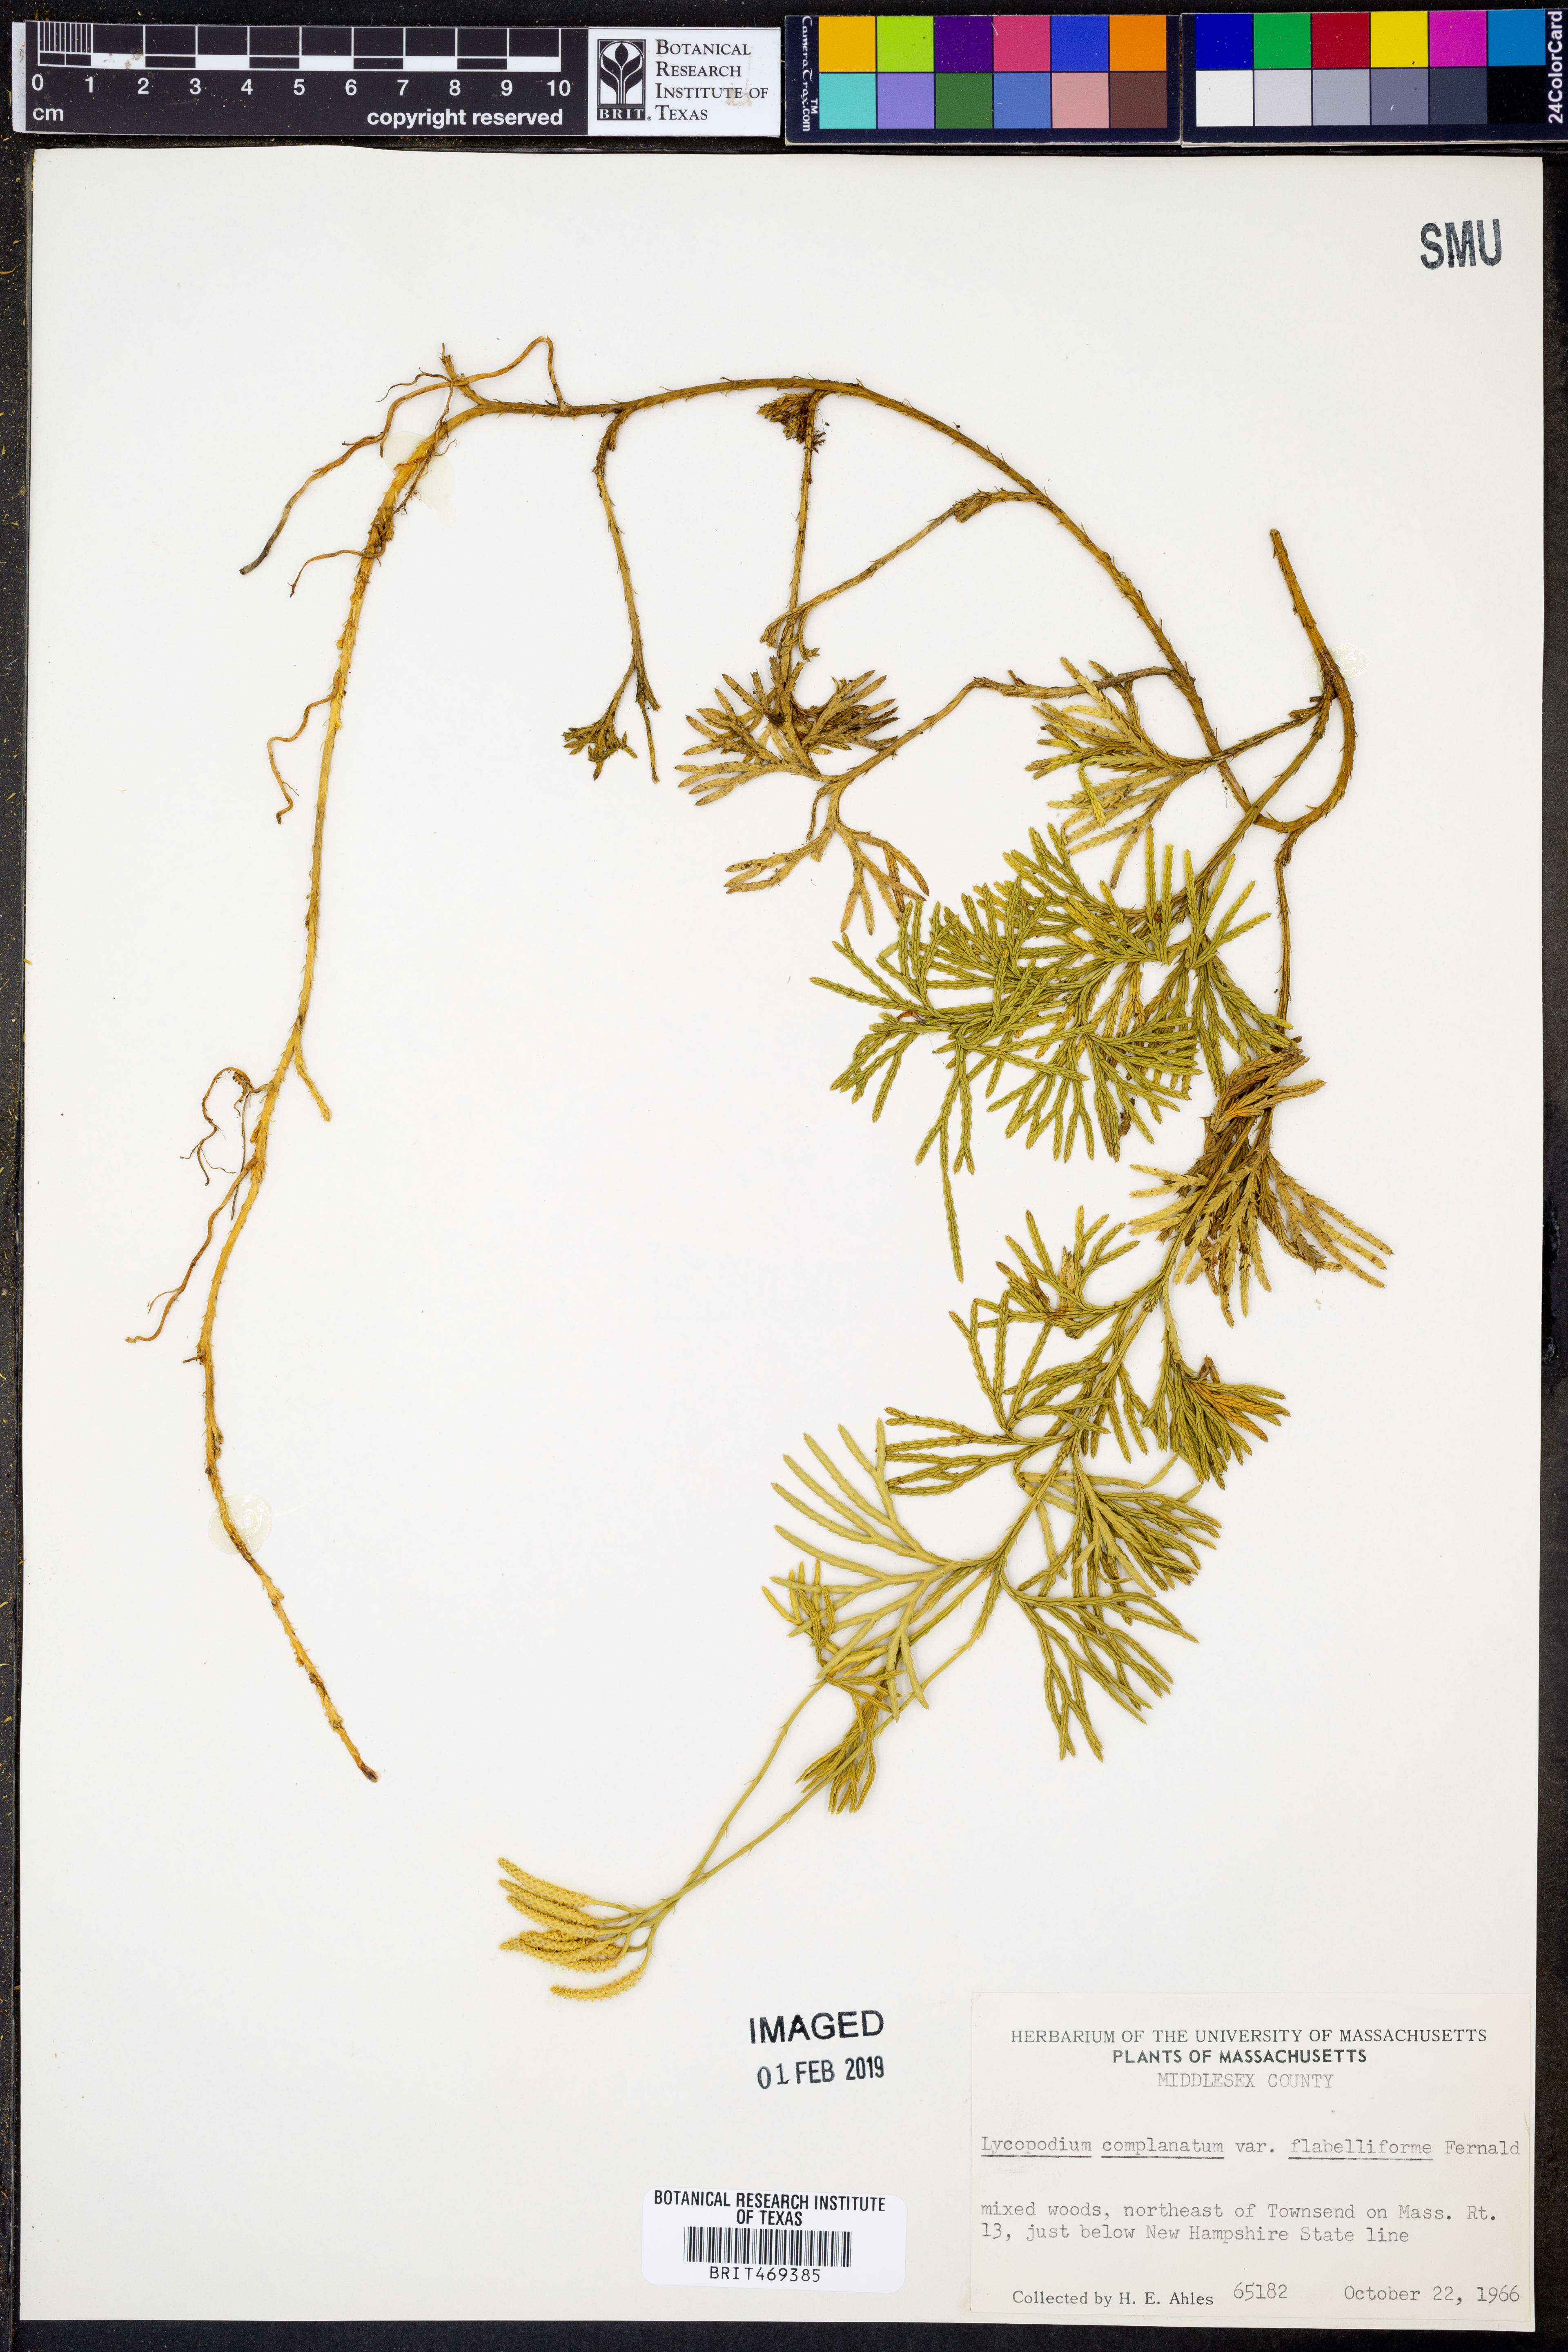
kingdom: Plantae
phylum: Tracheophyta
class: Lycopodiopsida
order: Lycopodiales
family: Lycopodiaceae
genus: Diphasiastrum
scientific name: Diphasiastrum digitatum
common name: Southern running-pine
